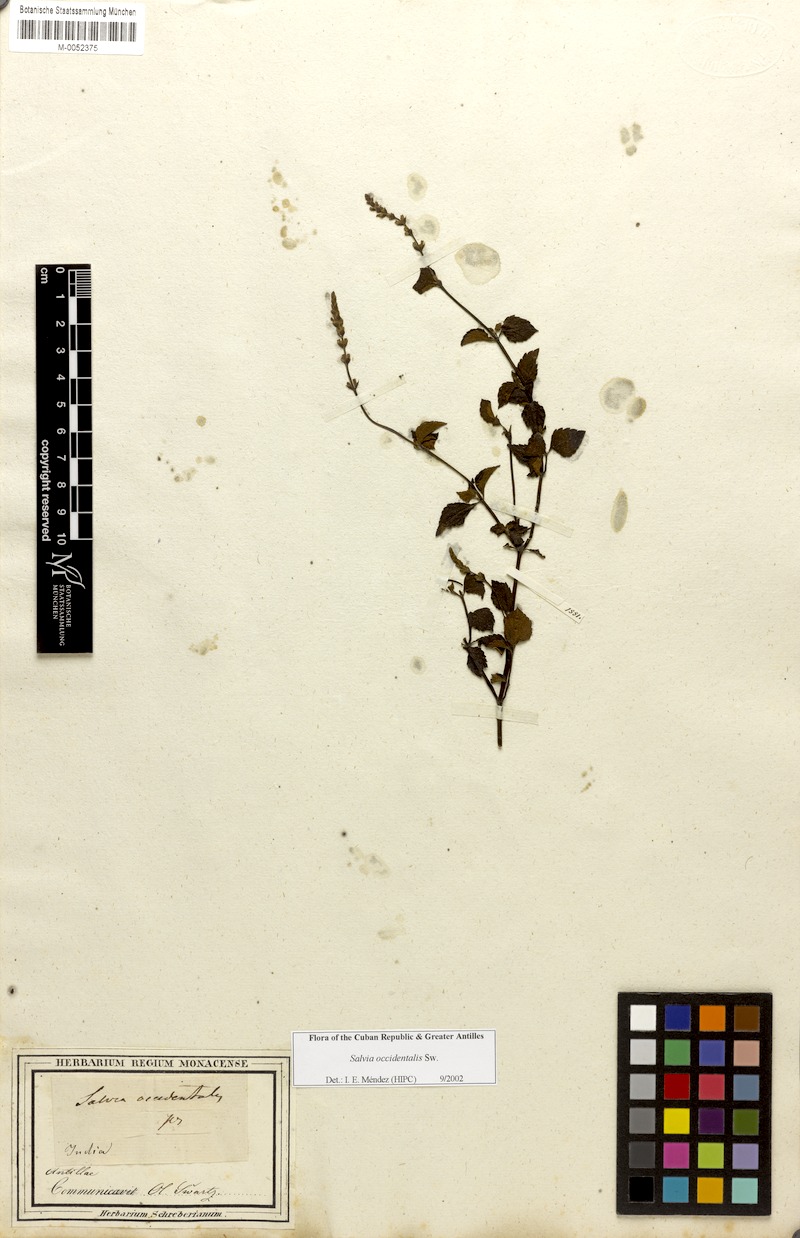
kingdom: Plantae
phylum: Tracheophyta
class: Magnoliopsida
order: Lamiales
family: Lamiaceae
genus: Salvia
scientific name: Salvia occidentalis
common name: West indian sage
